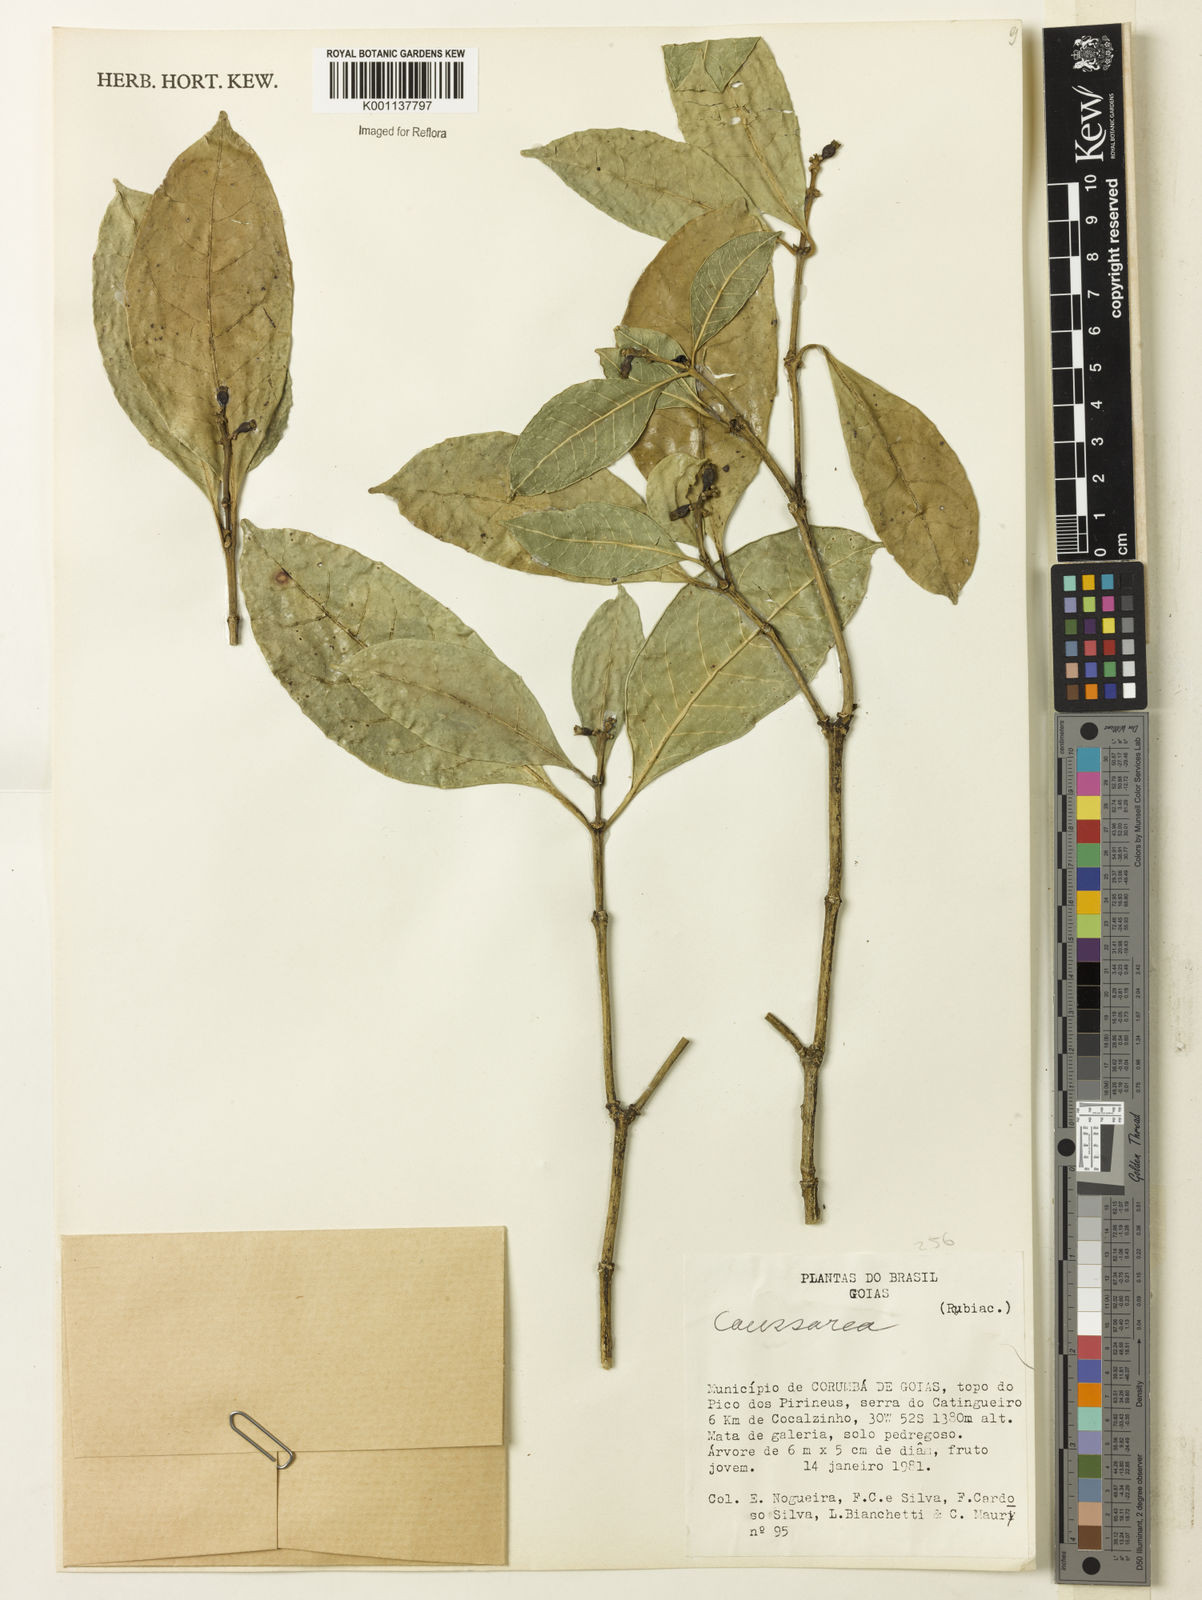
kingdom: Plantae
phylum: Tracheophyta
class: Magnoliopsida
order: Gentianales
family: Rubiaceae
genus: Coussarea
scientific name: Coussarea
